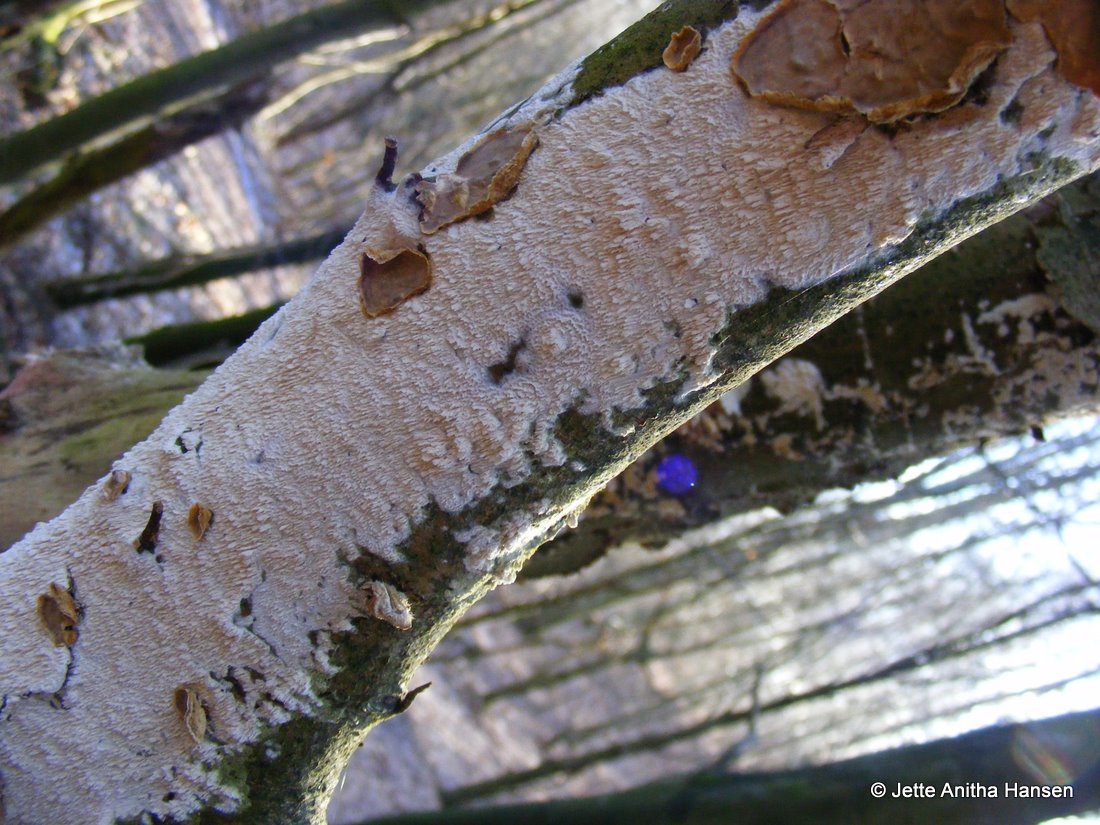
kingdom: Fungi
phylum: Basidiomycota
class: Agaricomycetes
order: Hymenochaetales
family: Schizoporaceae
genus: Schizopora
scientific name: Schizopora paradoxa
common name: hvid tandsvamp
